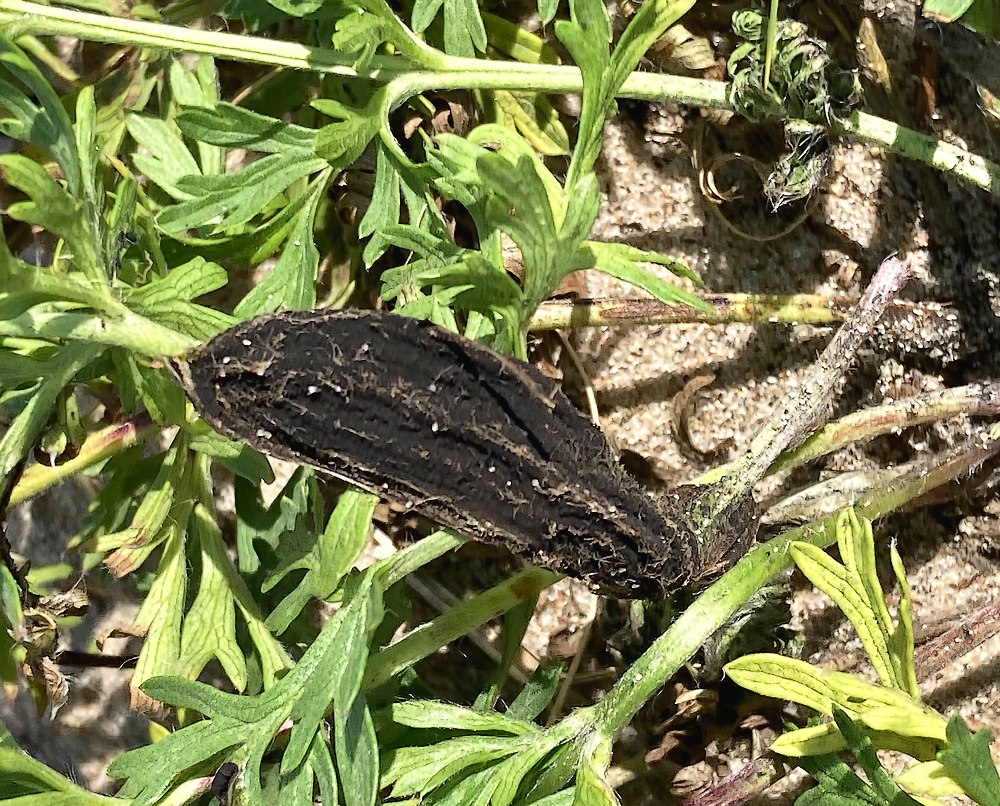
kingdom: Fungi
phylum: Basidiomycota
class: Ustilaginomycetes
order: Urocystidales
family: Urocystidaceae
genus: Urocystis
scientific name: Urocystis pulsatillae
